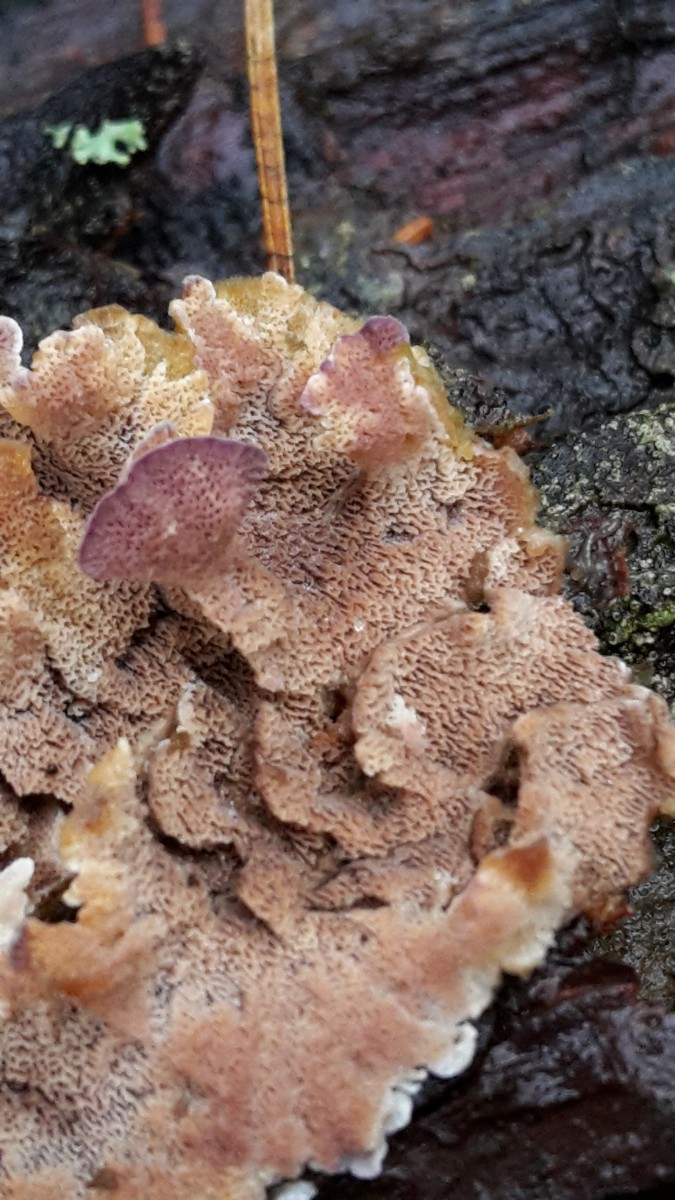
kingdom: Fungi
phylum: Basidiomycota
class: Agaricomycetes
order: Hymenochaetales
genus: Trichaptum
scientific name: Trichaptum abietinum
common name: almindelig violporesvamp
